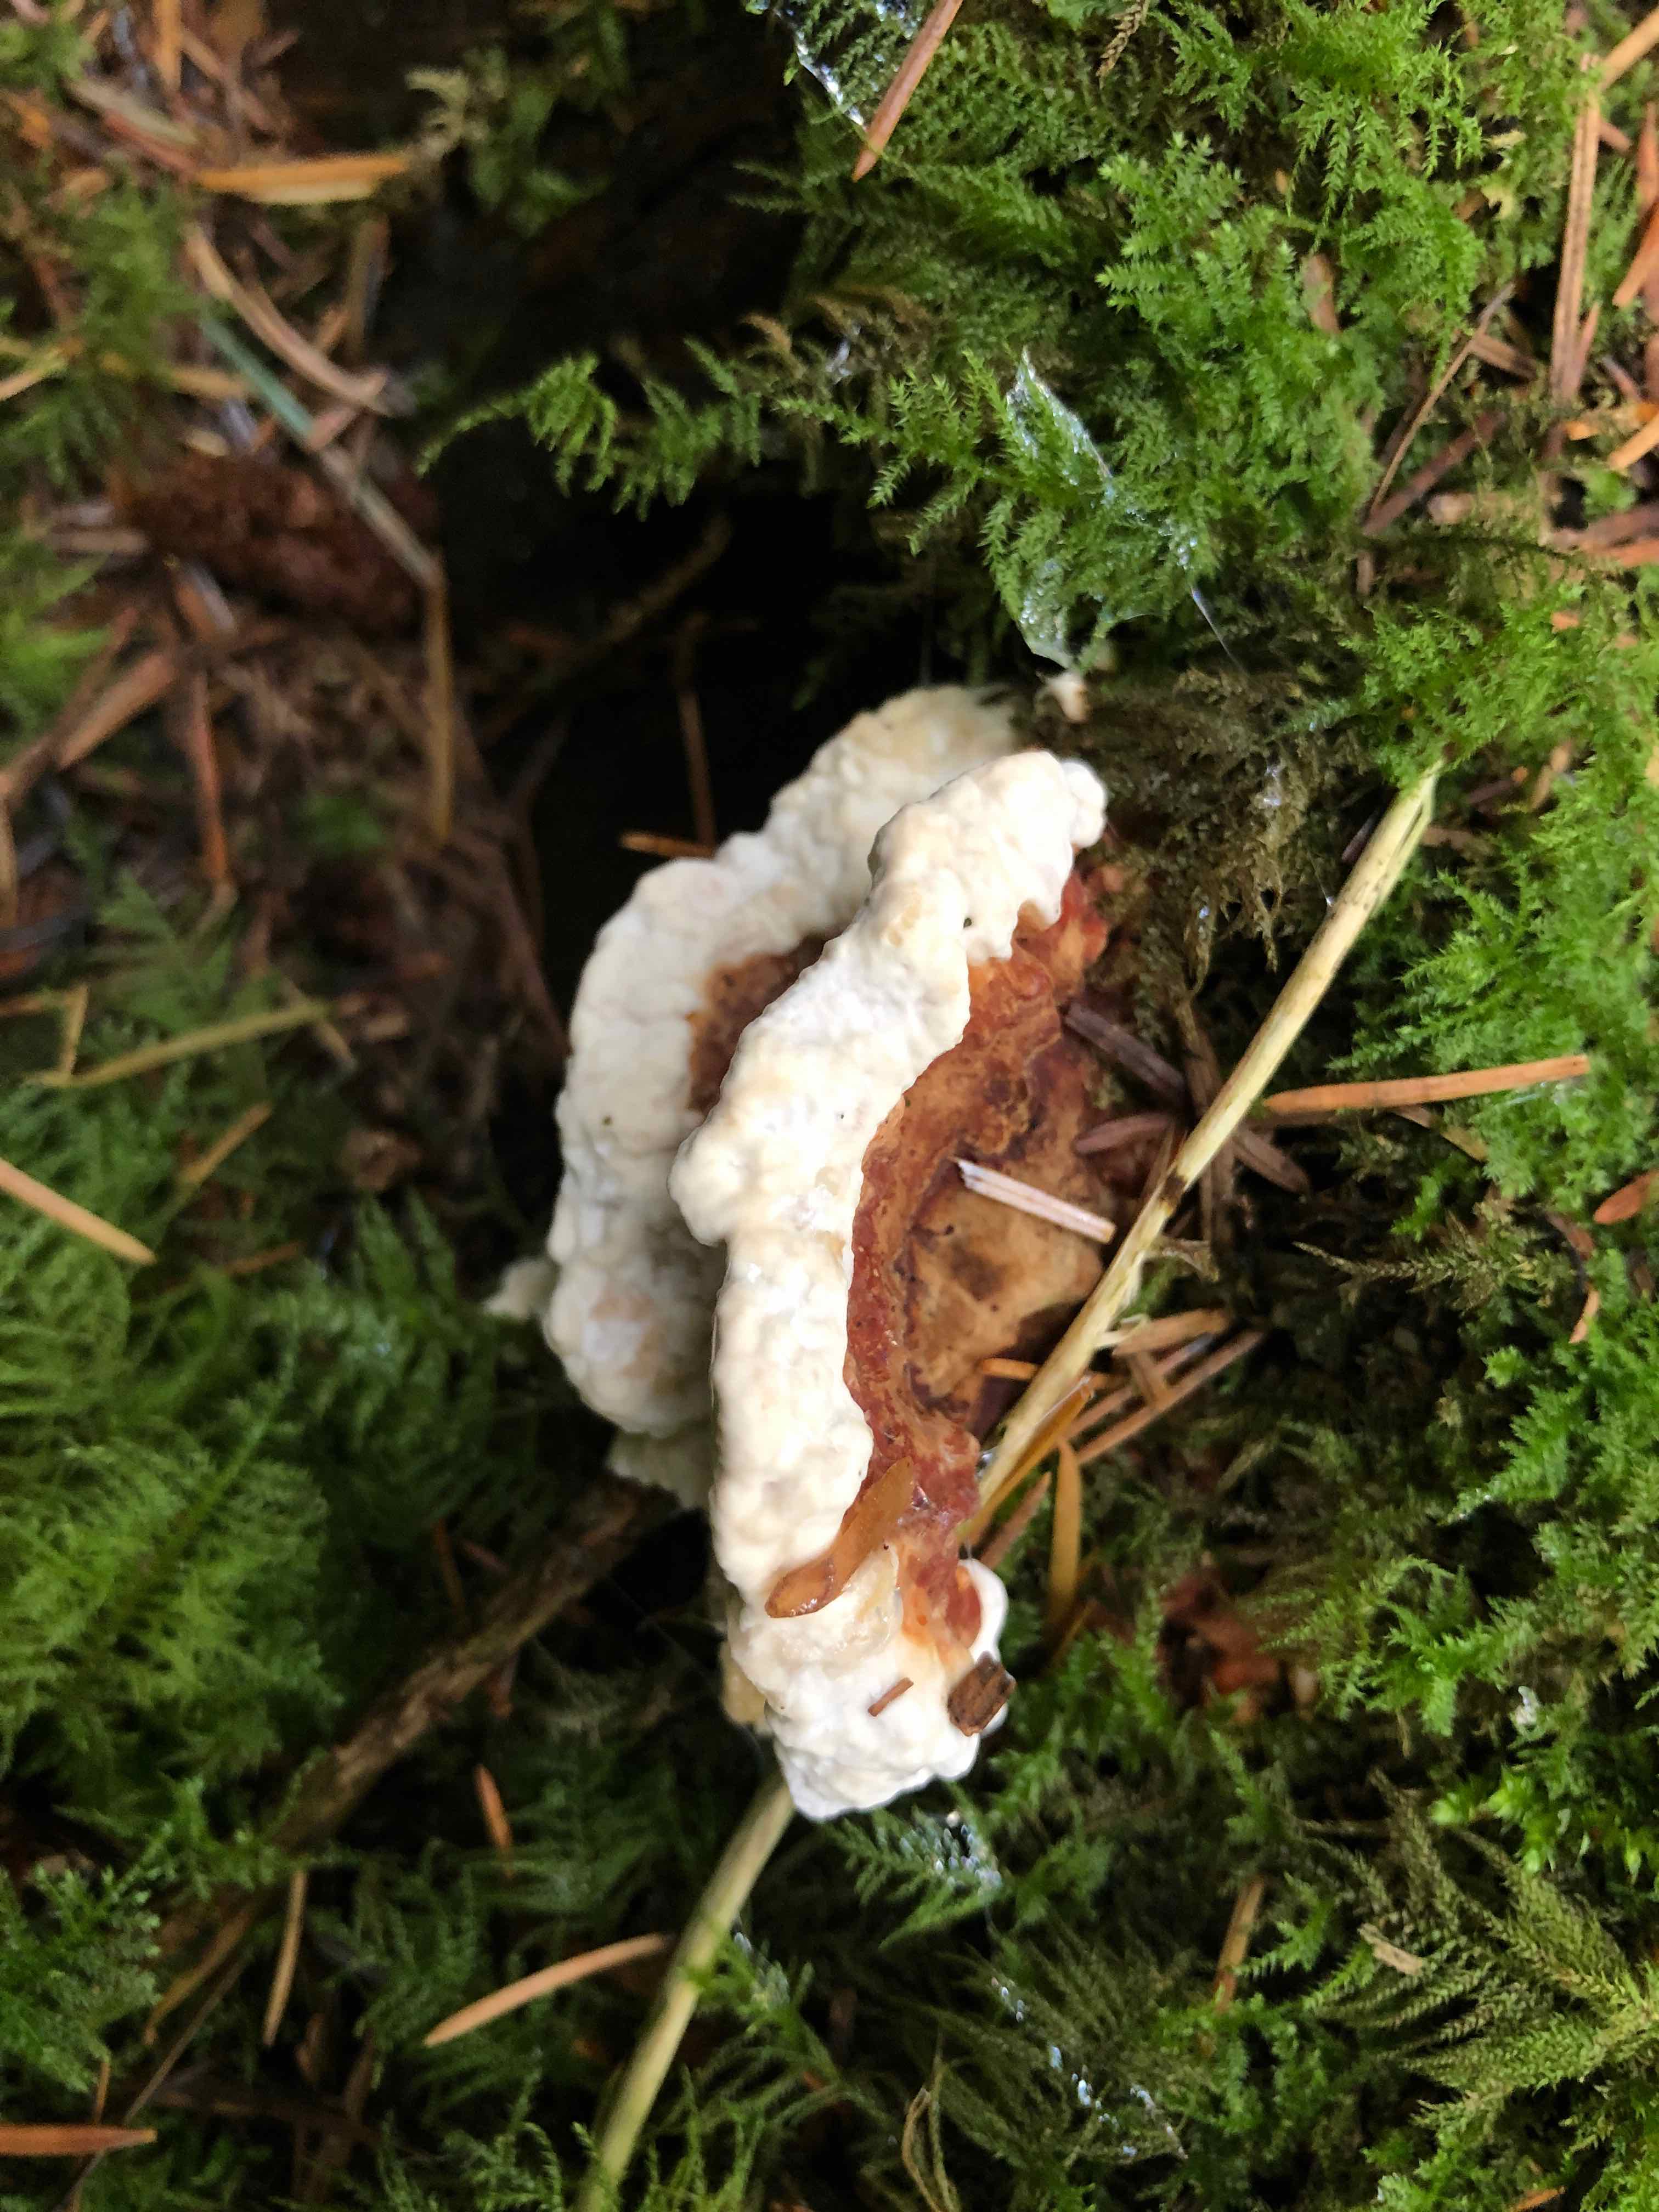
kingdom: Fungi
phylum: Basidiomycota
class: Agaricomycetes
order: Russulales
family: Bondarzewiaceae
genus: Heterobasidion
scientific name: Heterobasidion annosum
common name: almindelig rodfordærver
